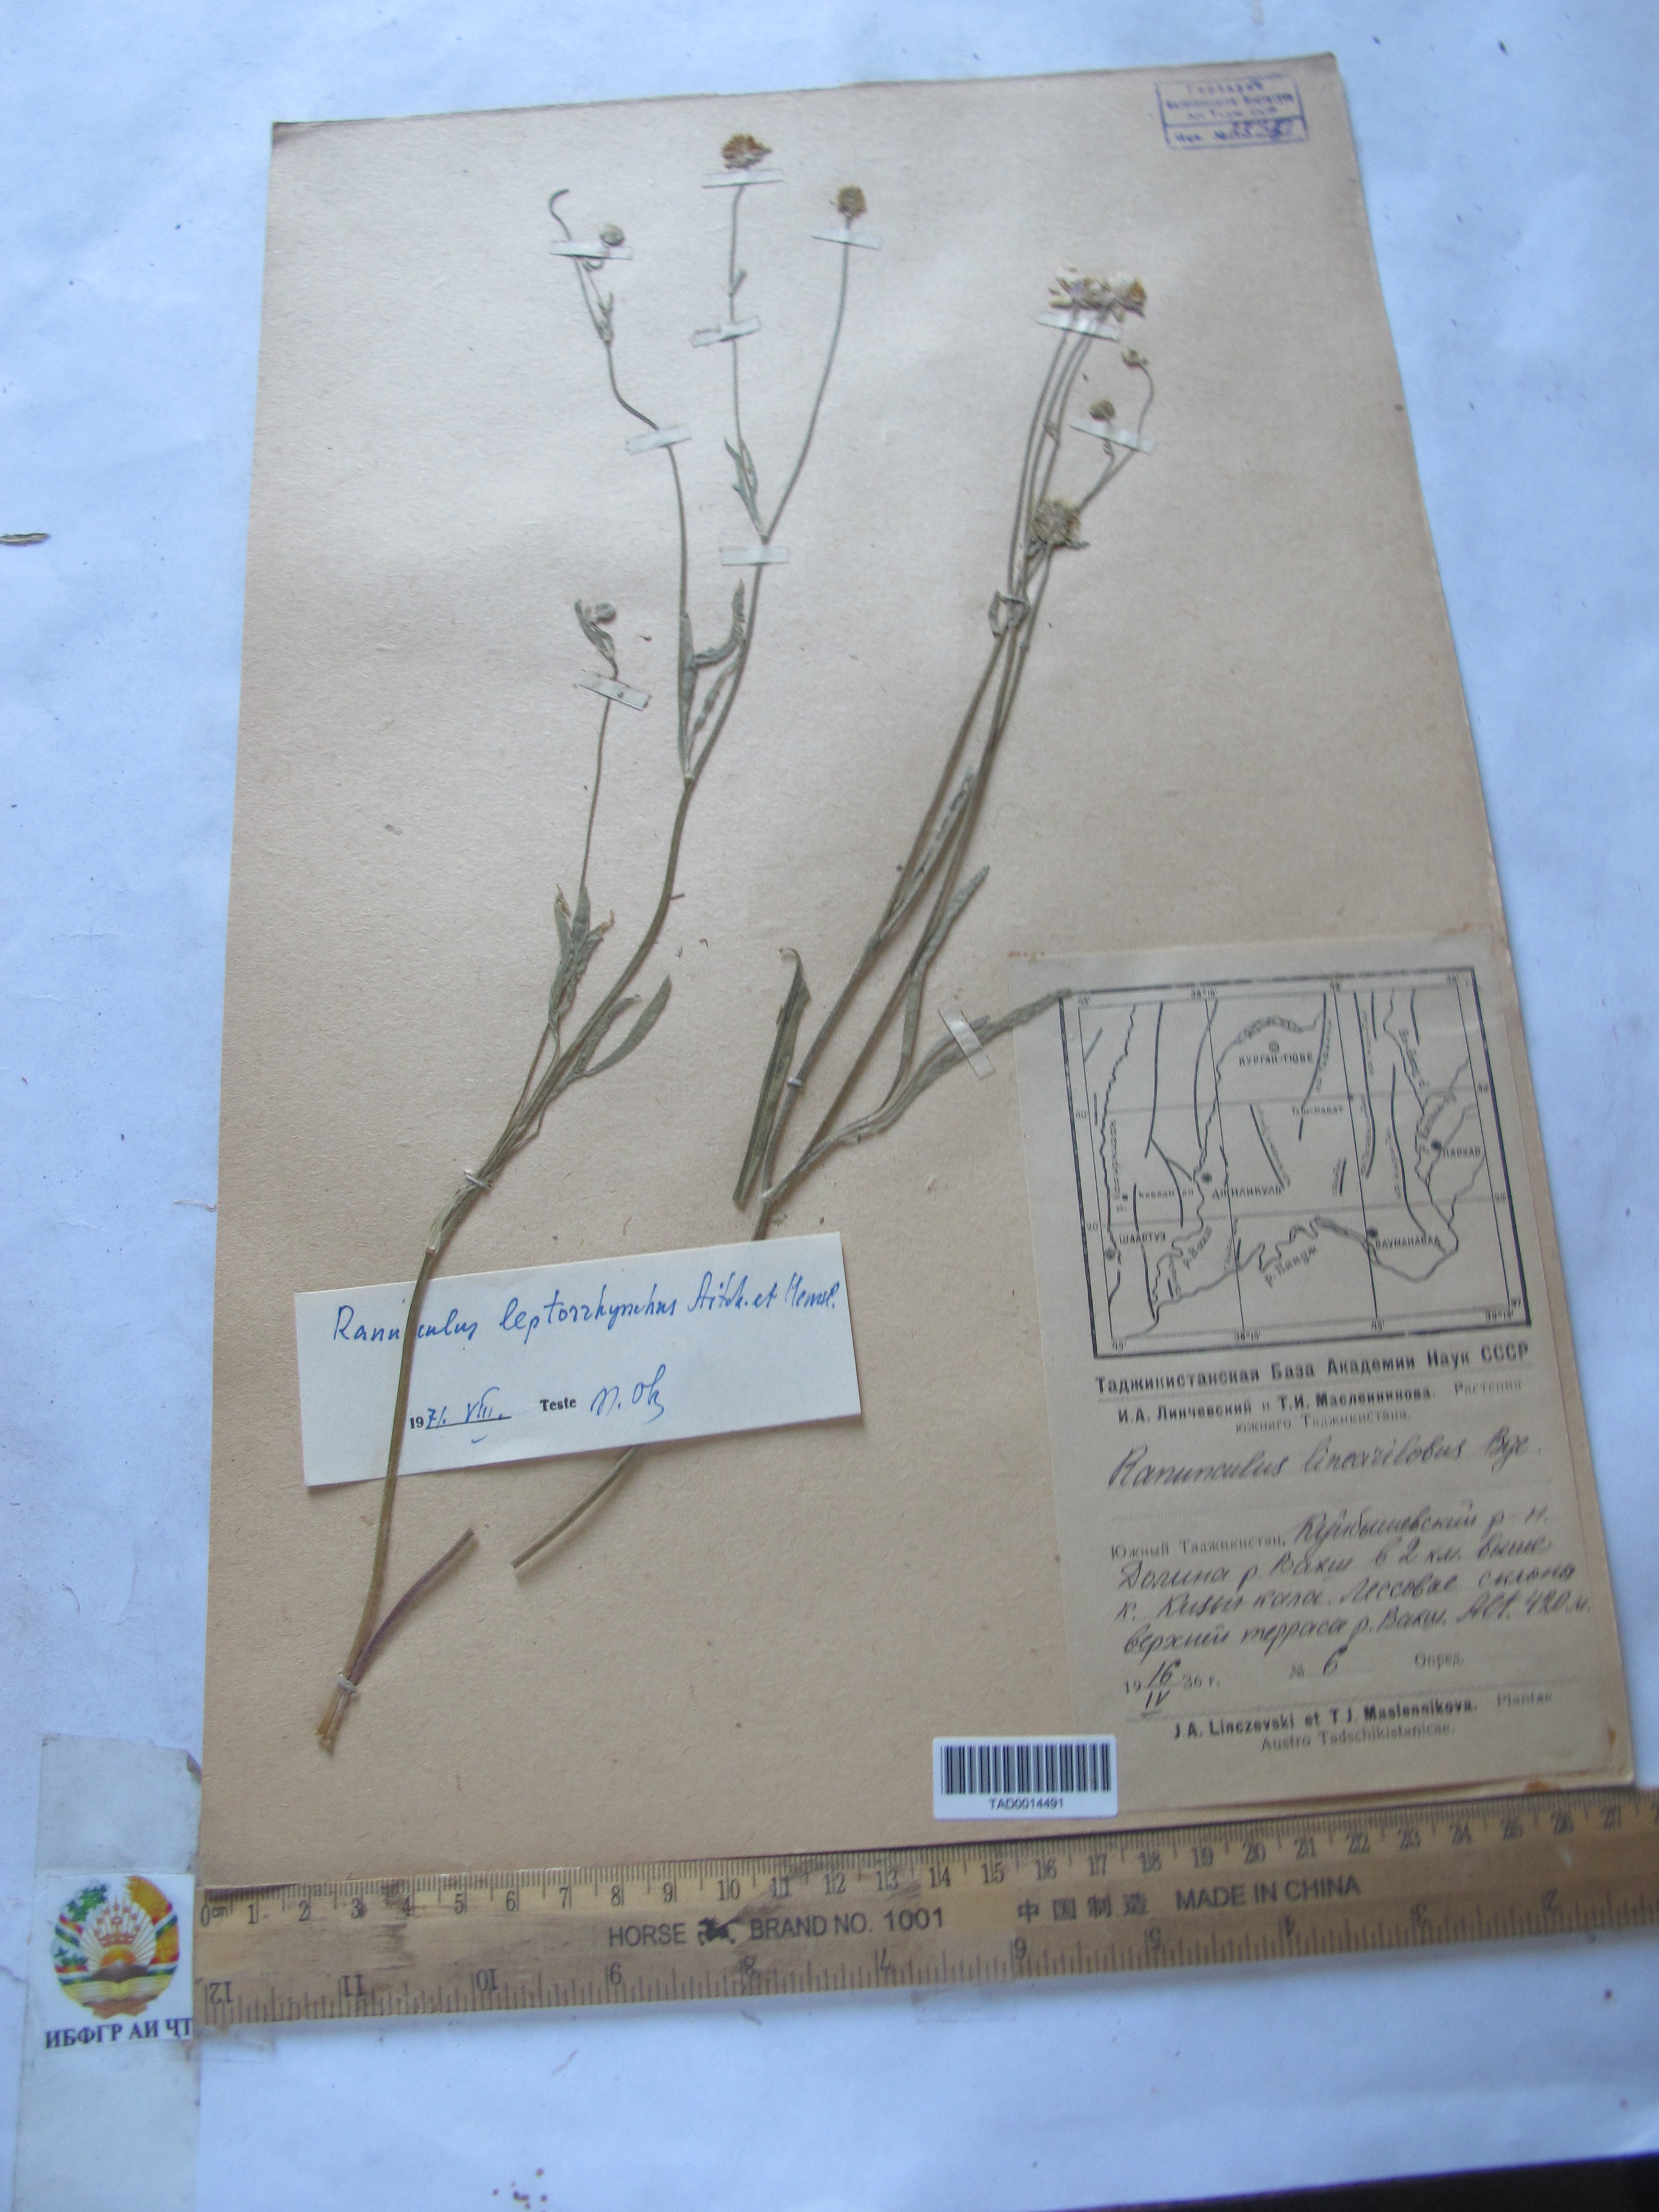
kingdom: Plantae
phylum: Tracheophyta
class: Magnoliopsida
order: Ranunculales
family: Ranunculaceae
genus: Ranunculus
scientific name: Ranunculus linearilobus
